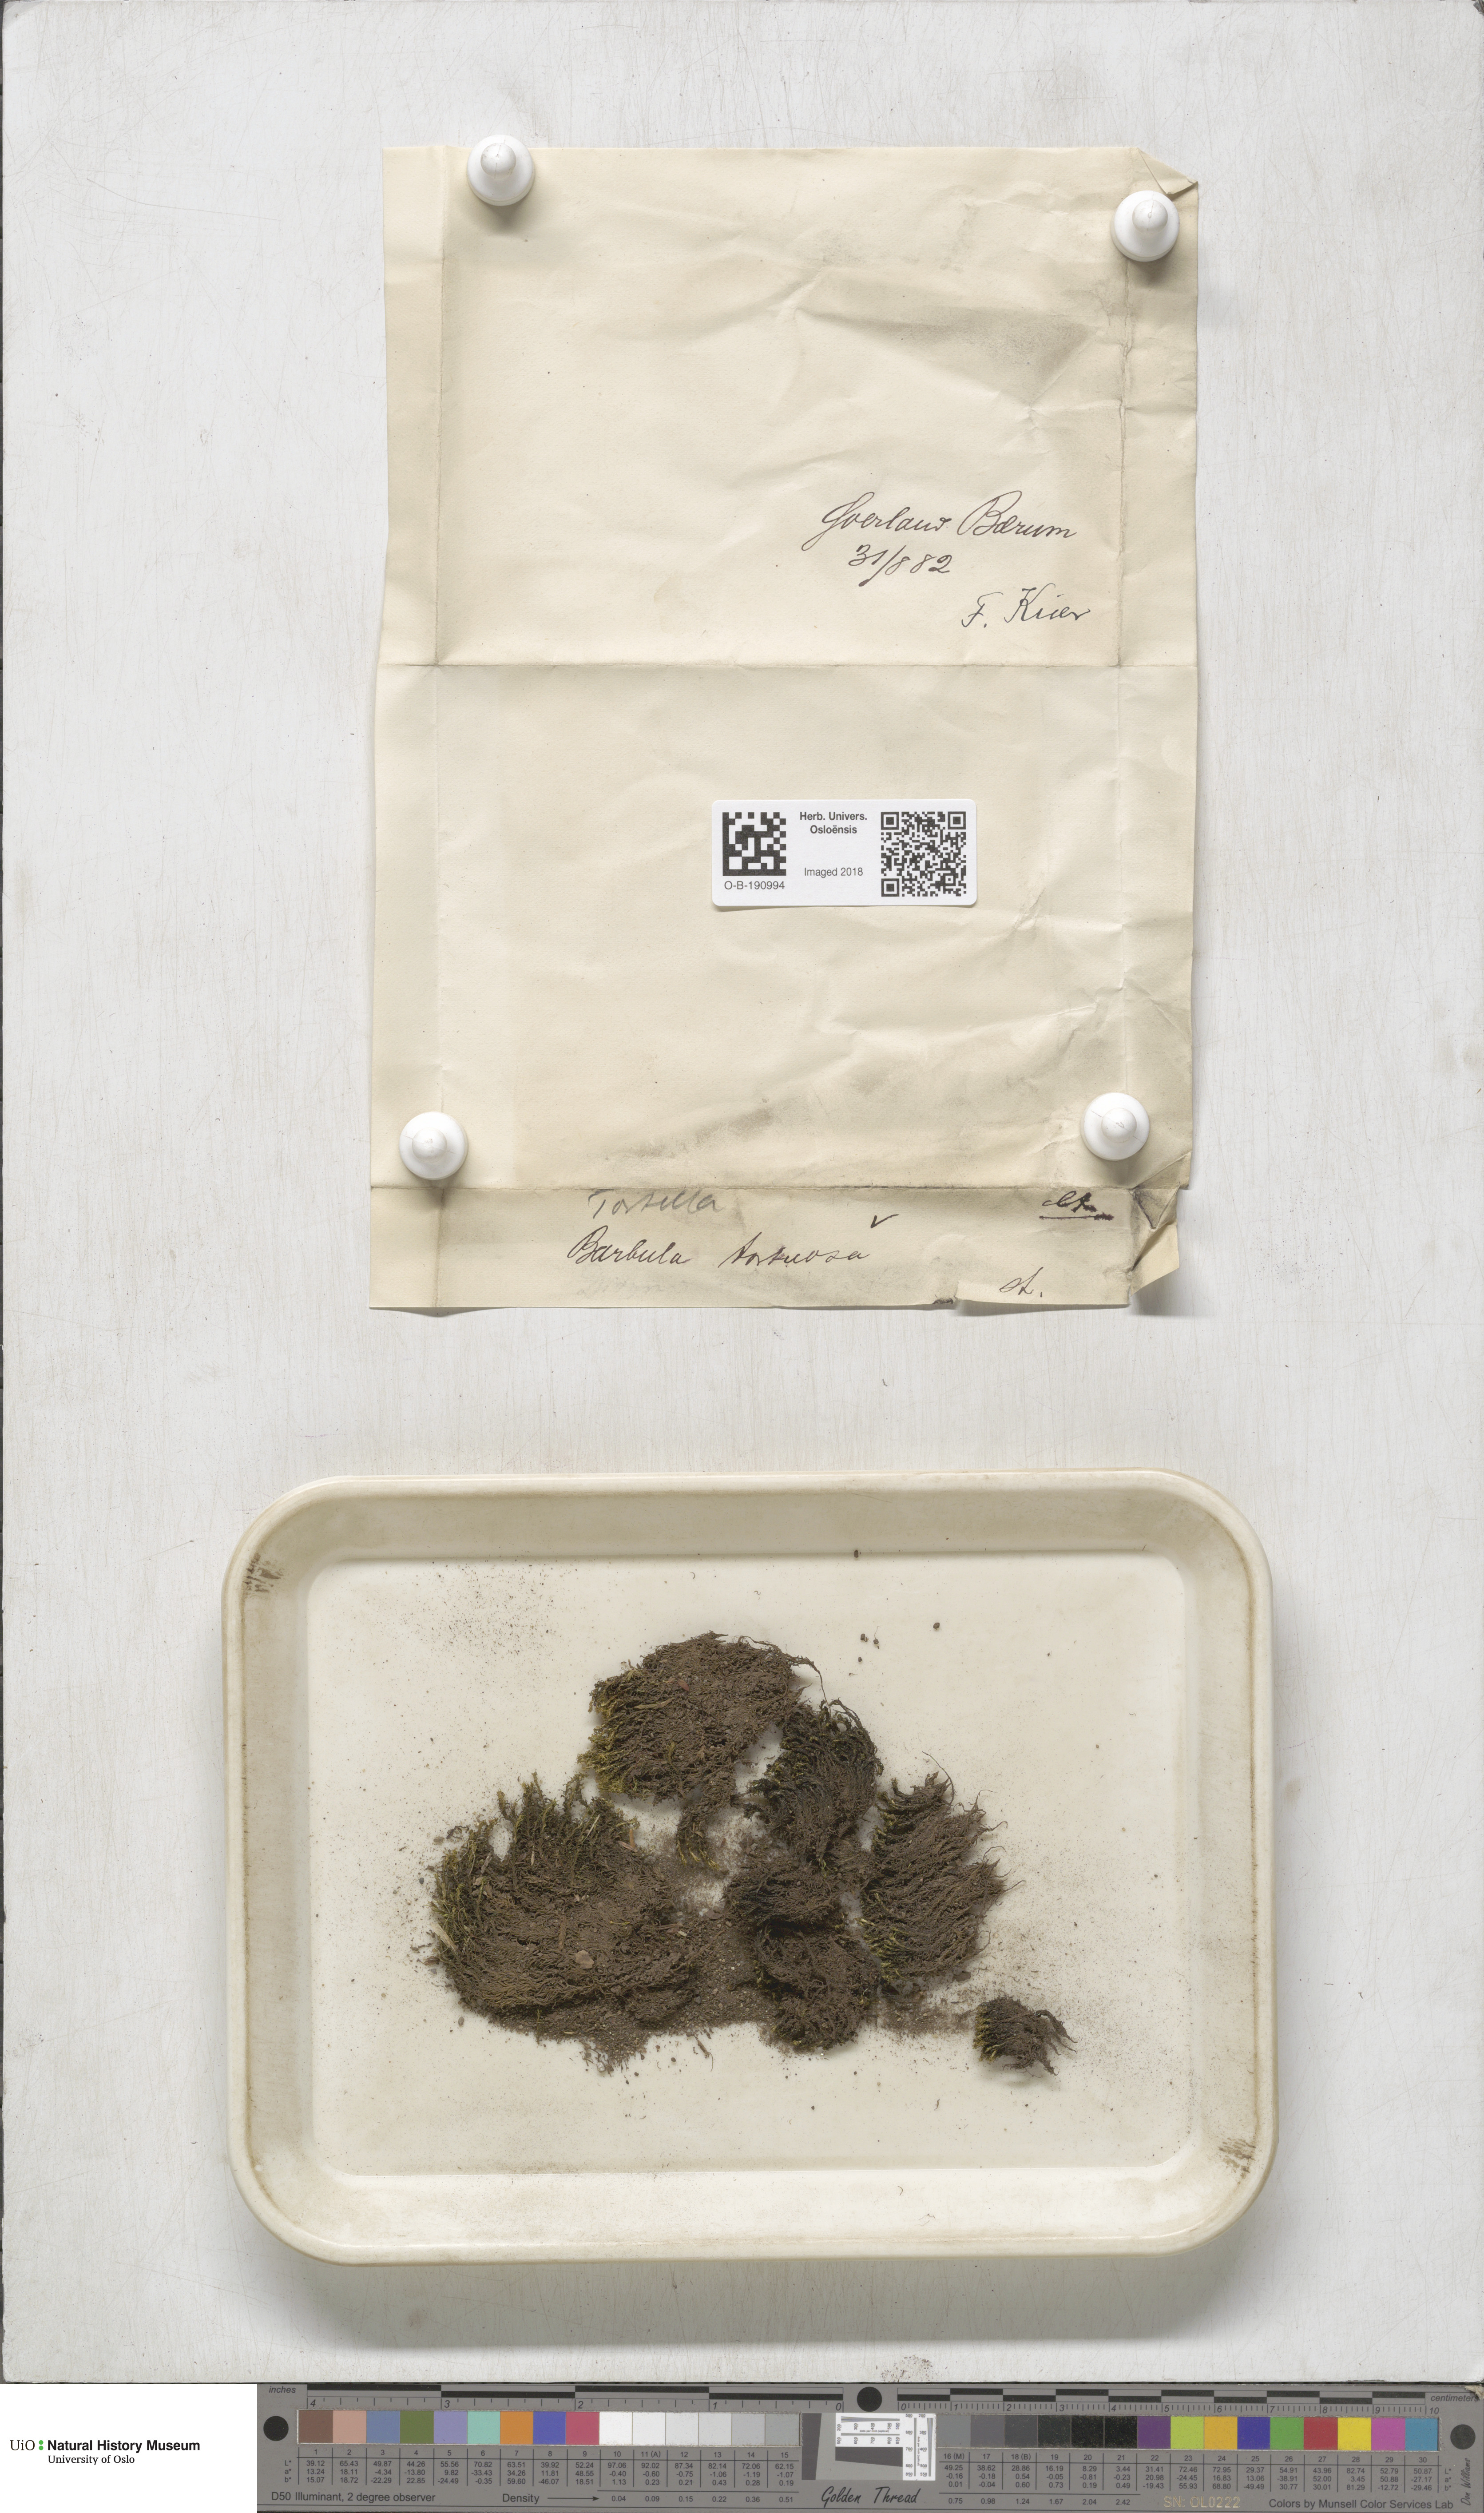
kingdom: Plantae
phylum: Bryophyta
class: Bryopsida
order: Pottiales
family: Pottiaceae
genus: Tortella
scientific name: Tortella tortuosa
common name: Frizzled crisp moss
